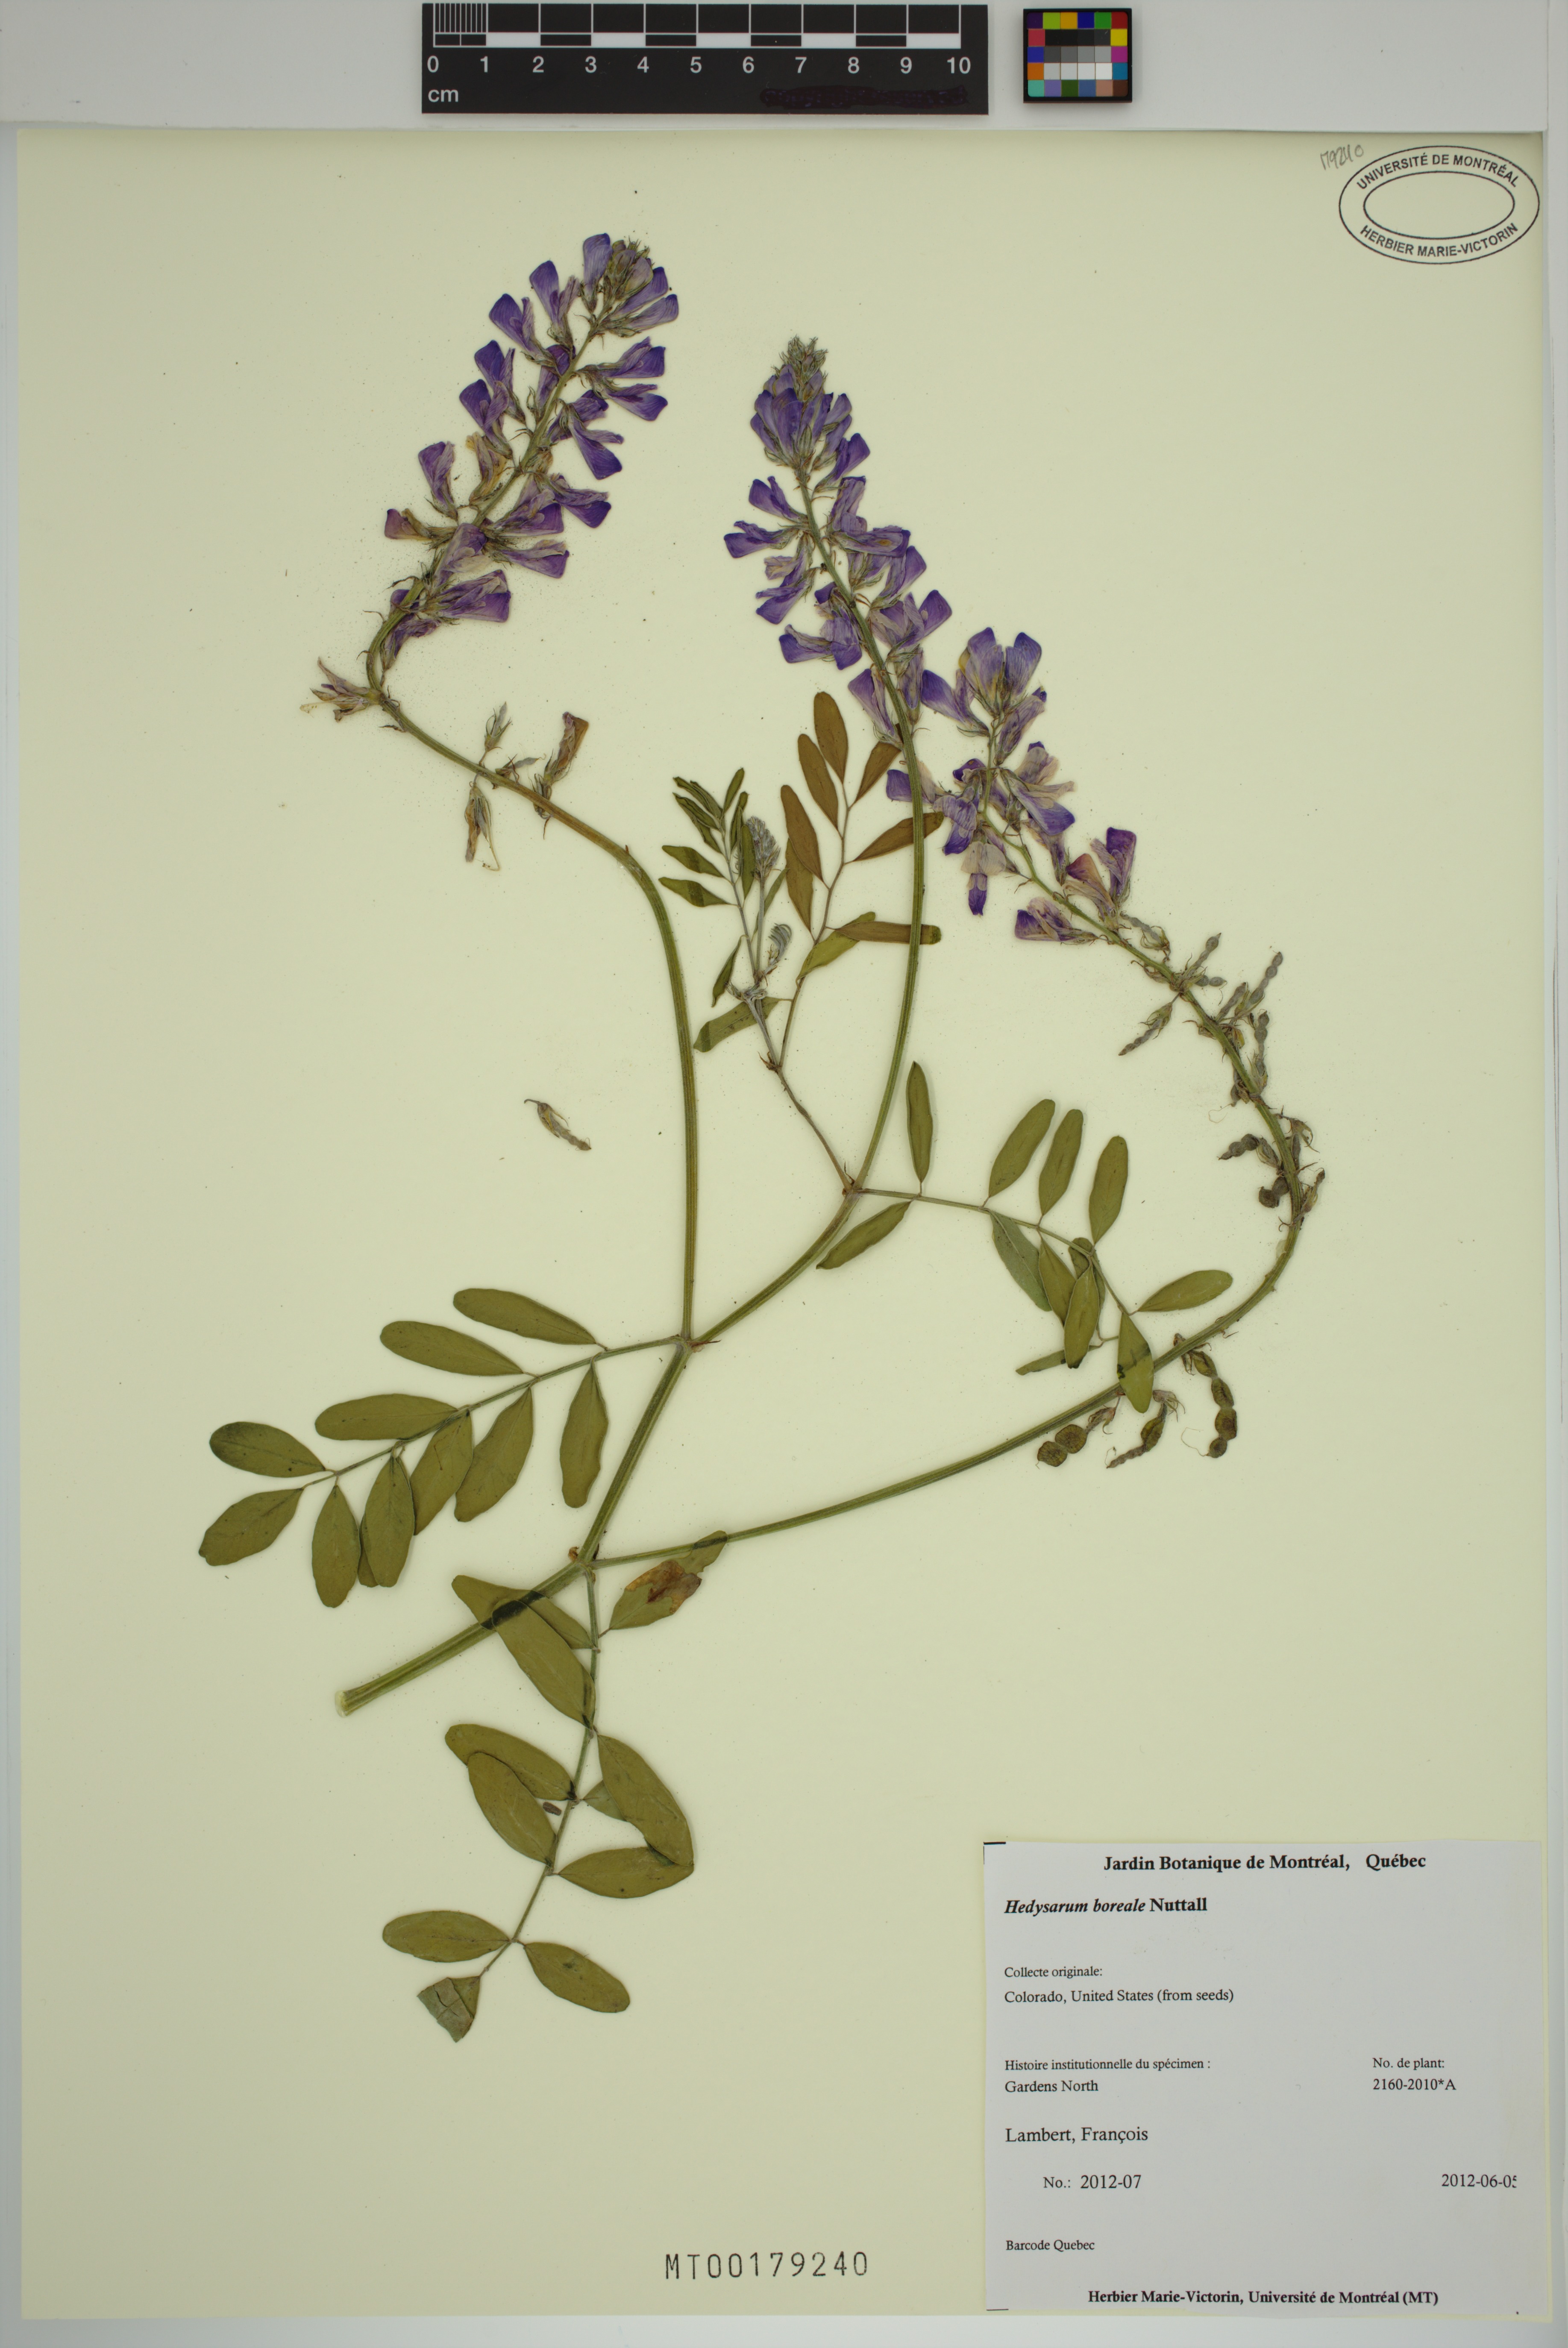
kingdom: Plantae
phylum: Tracheophyta
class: Magnoliopsida
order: Fabales
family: Fabaceae
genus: Hedysarum
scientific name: Hedysarum boreale
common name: Northern sweet-vetch
